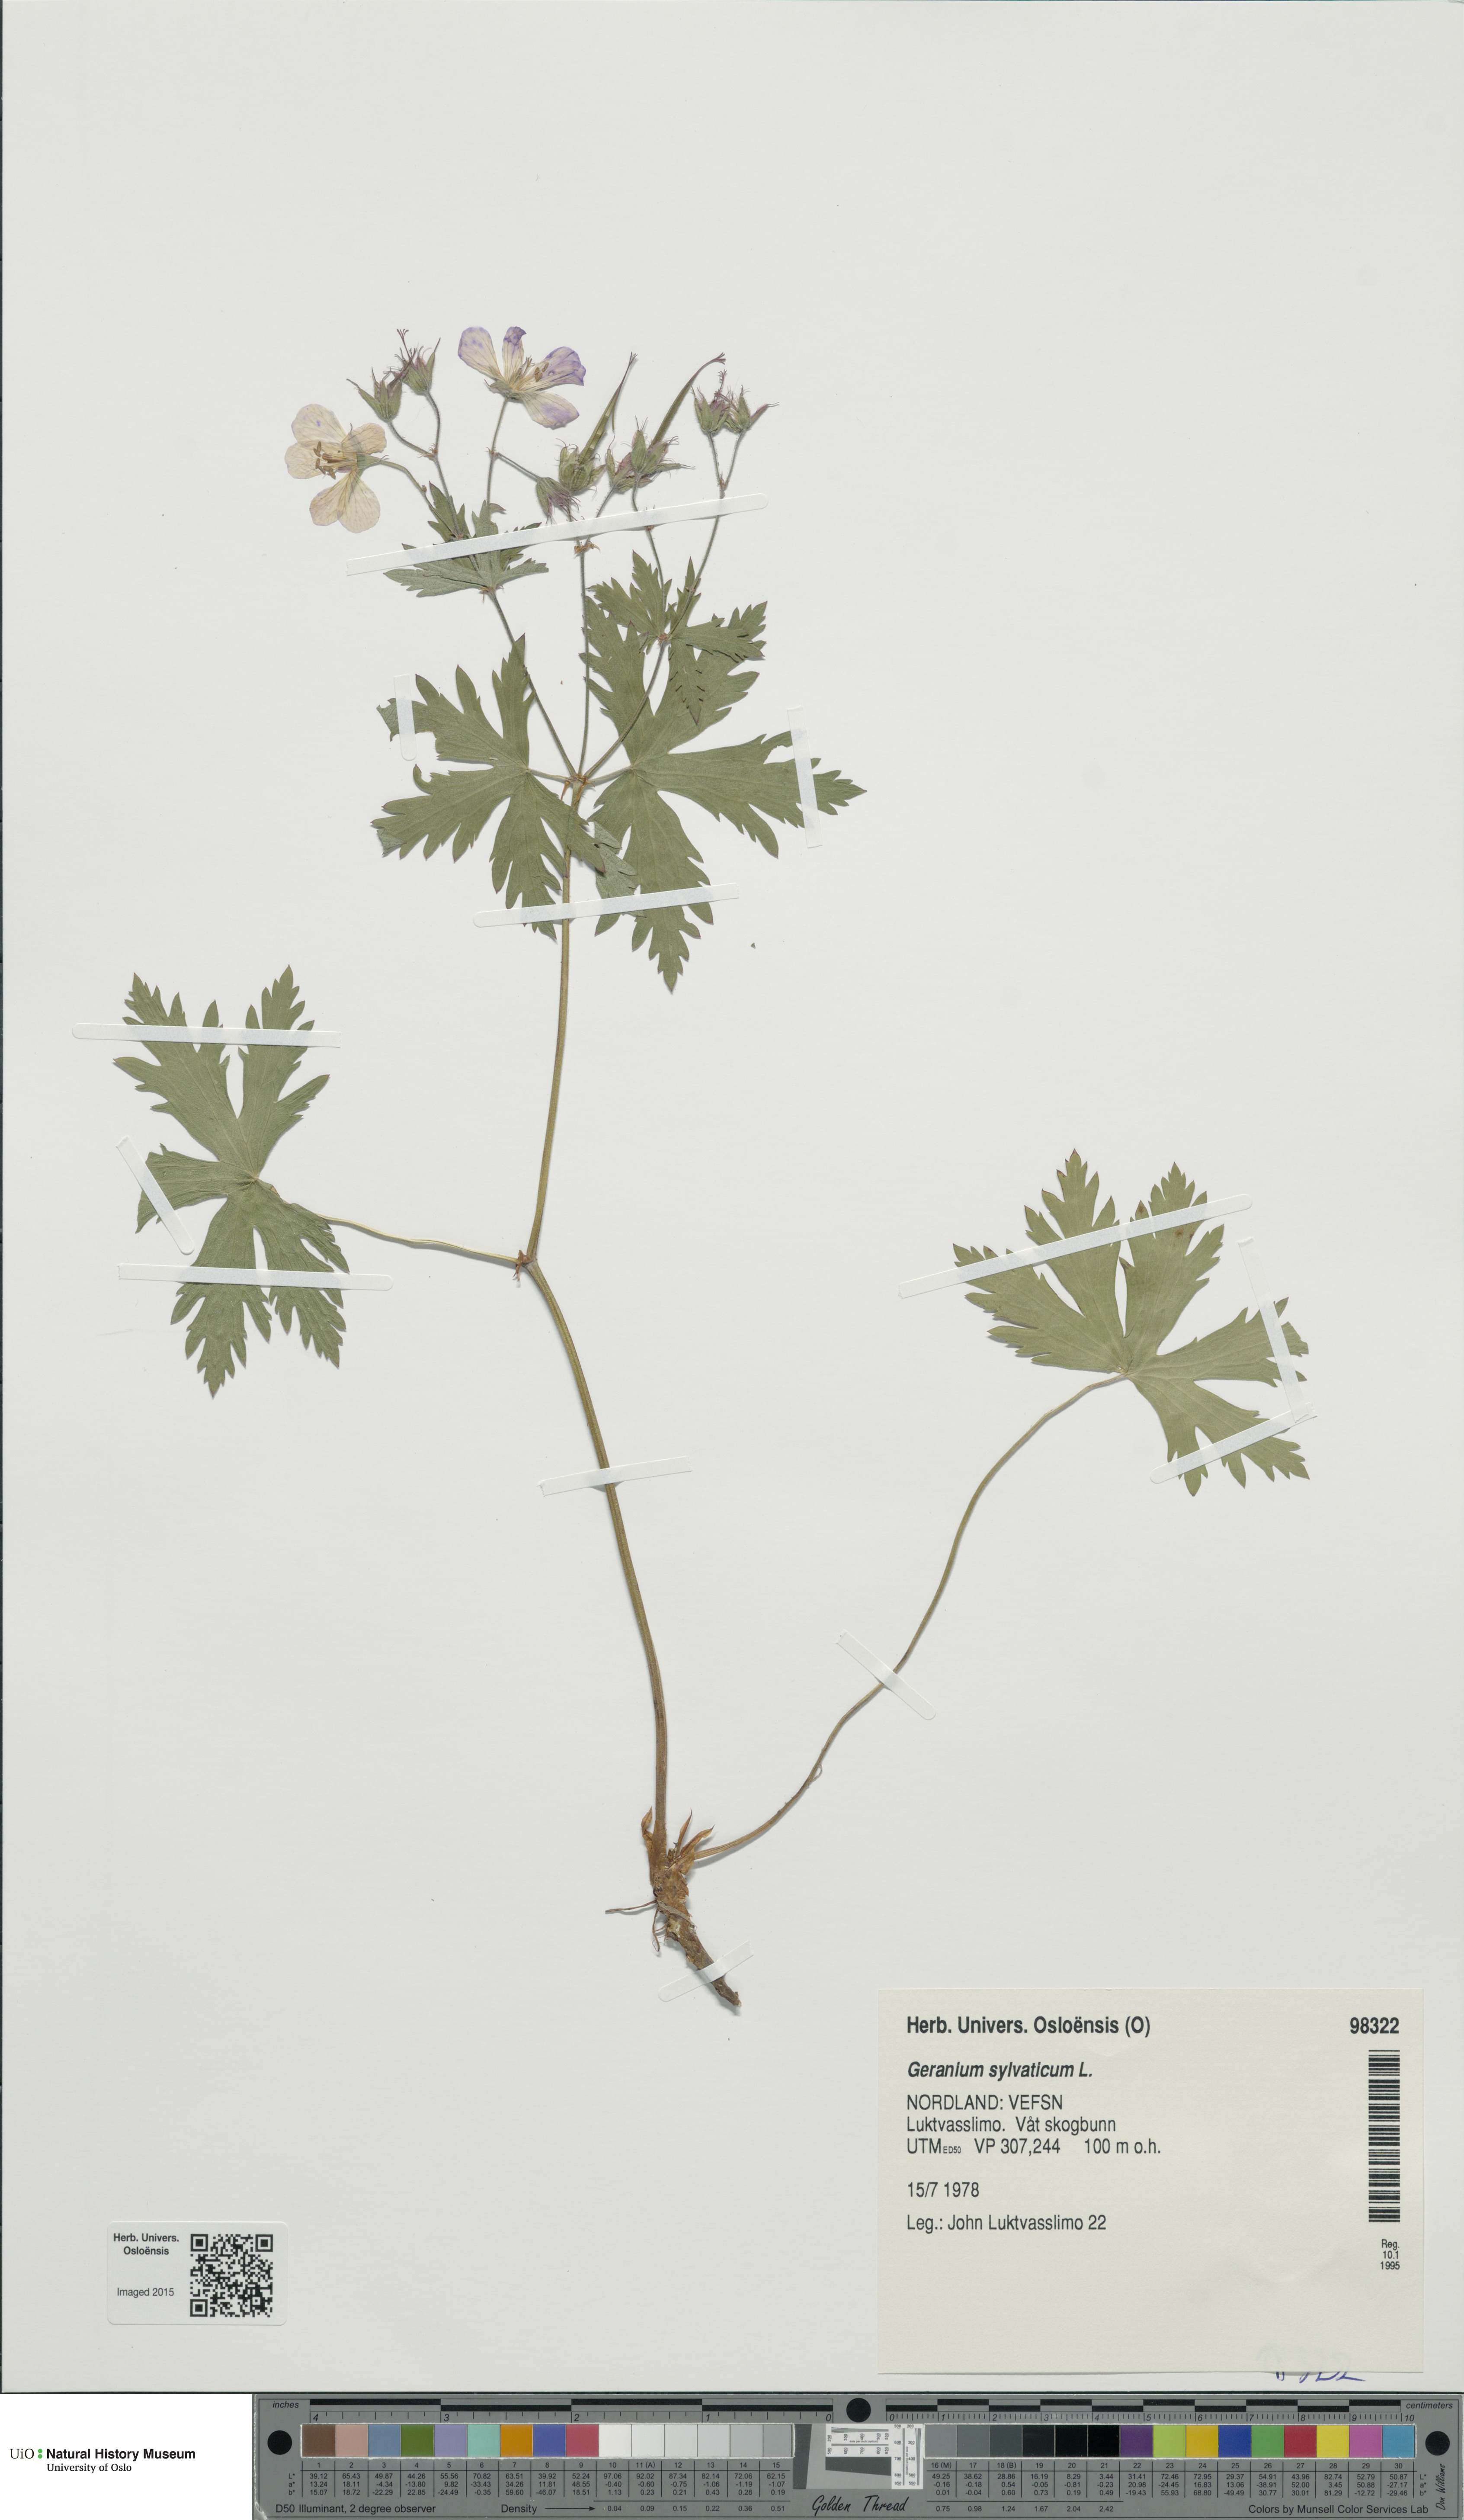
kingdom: Plantae
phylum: Tracheophyta
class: Magnoliopsida
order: Geraniales
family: Geraniaceae
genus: Geranium
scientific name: Geranium sylvaticum
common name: Wood crane's-bill
